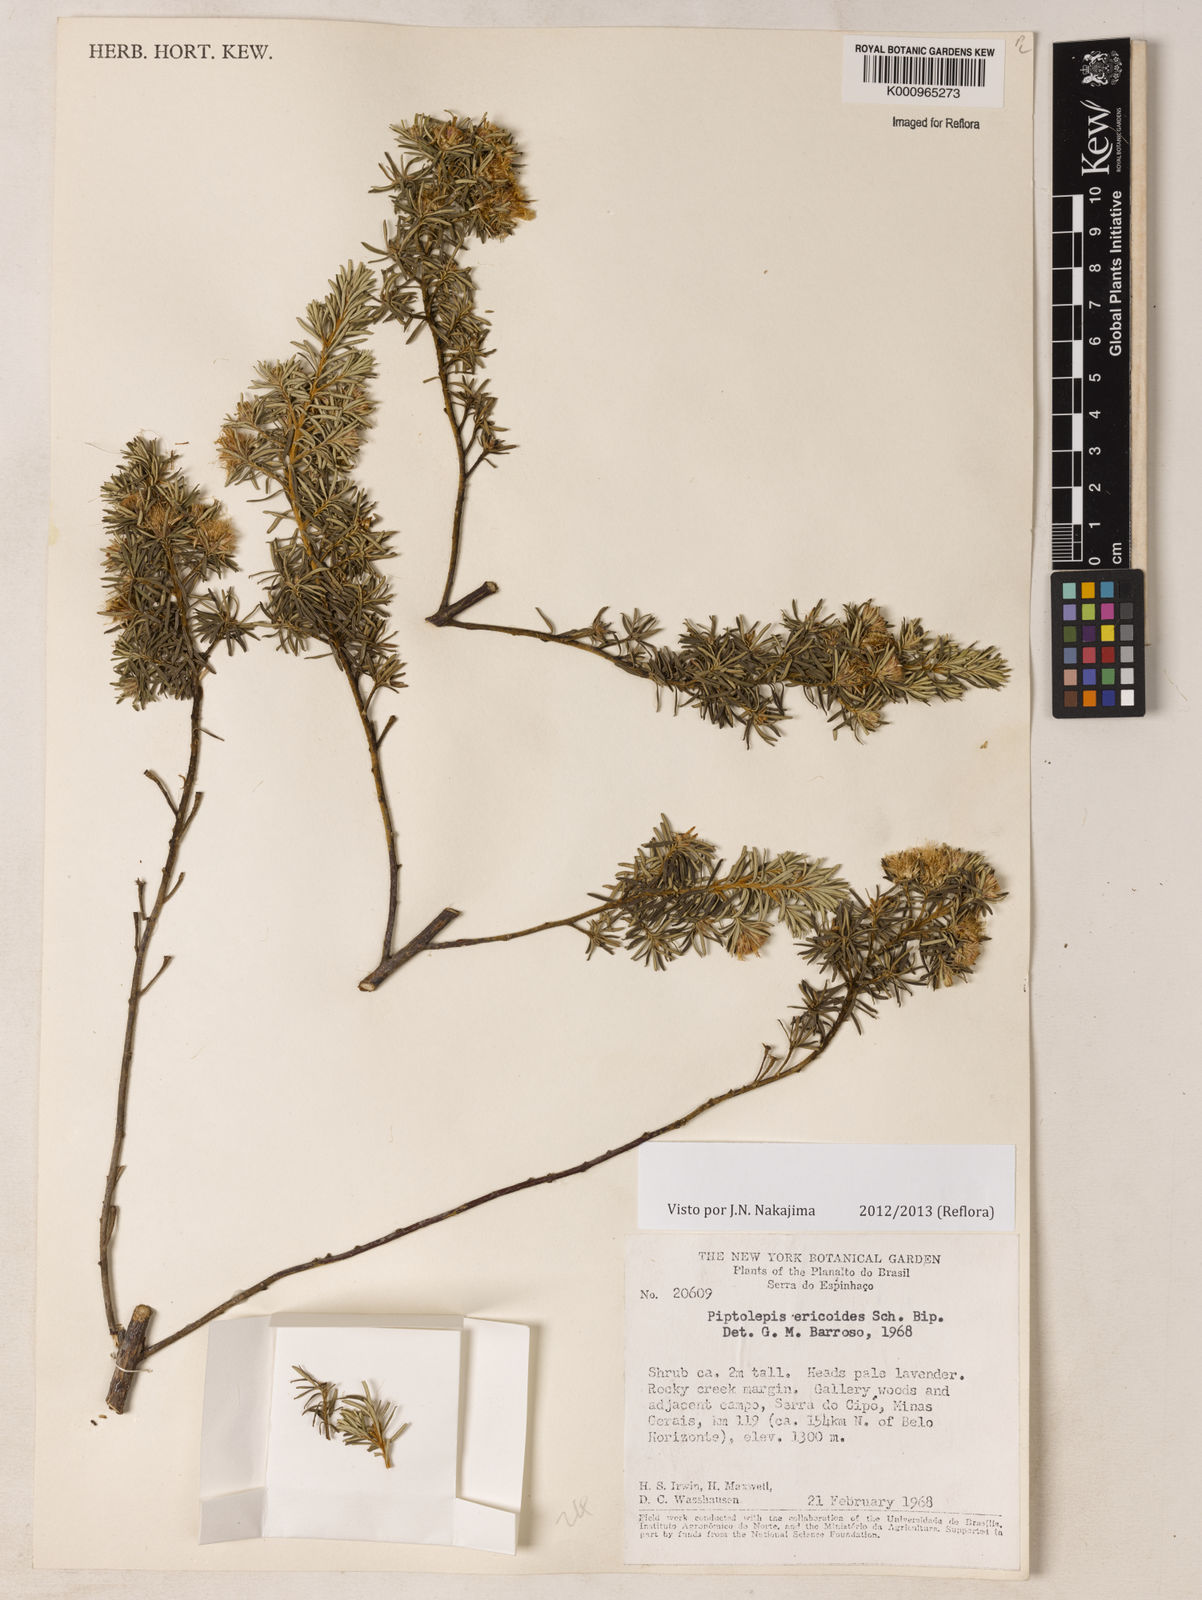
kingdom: Plantae
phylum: Tracheophyta
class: Magnoliopsida
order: Asterales
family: Asteraceae
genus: Piptolepis
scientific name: Piptolepis ericoides
